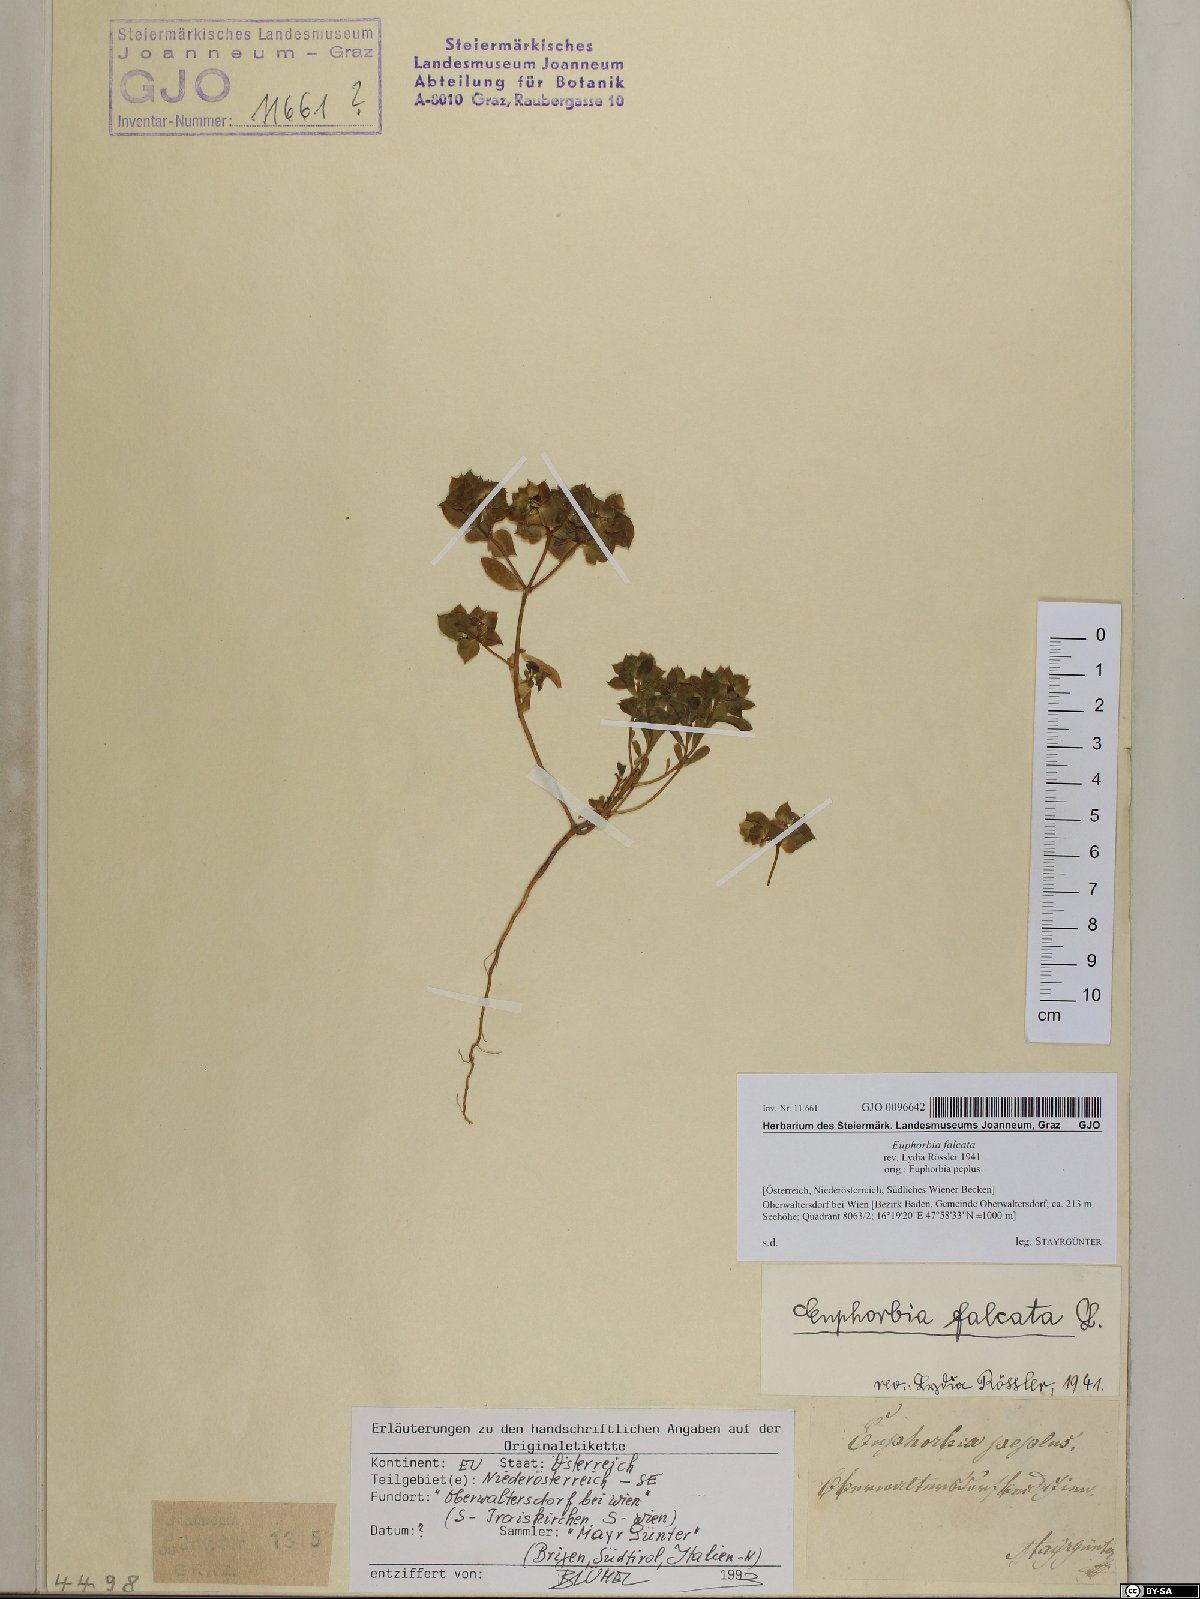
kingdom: Plantae
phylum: Tracheophyta
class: Magnoliopsida
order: Malpighiales
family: Euphorbiaceae
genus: Euphorbia
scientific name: Euphorbia falcata
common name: Sickle spurge
